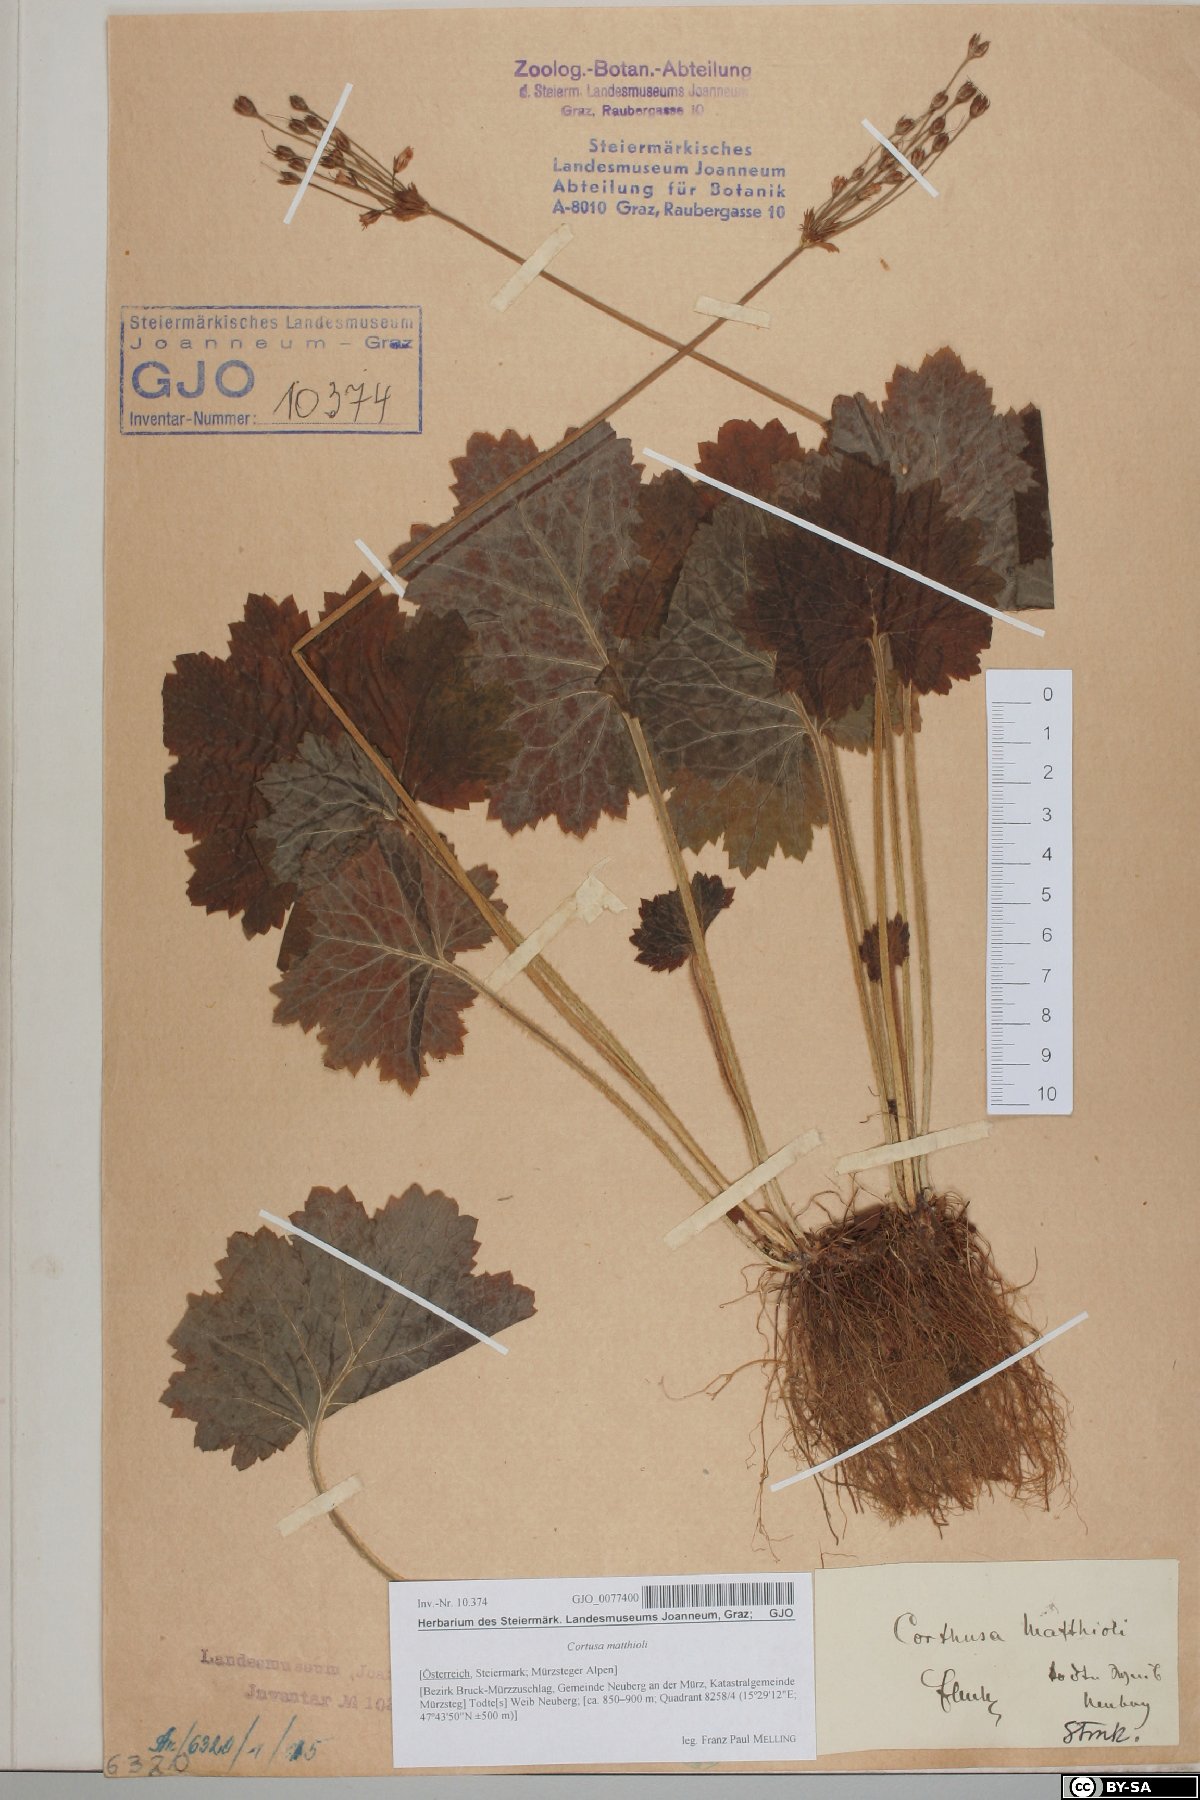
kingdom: Plantae
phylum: Tracheophyta
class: Magnoliopsida
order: Ericales
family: Primulaceae
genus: Primula
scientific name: Primula matthioli
